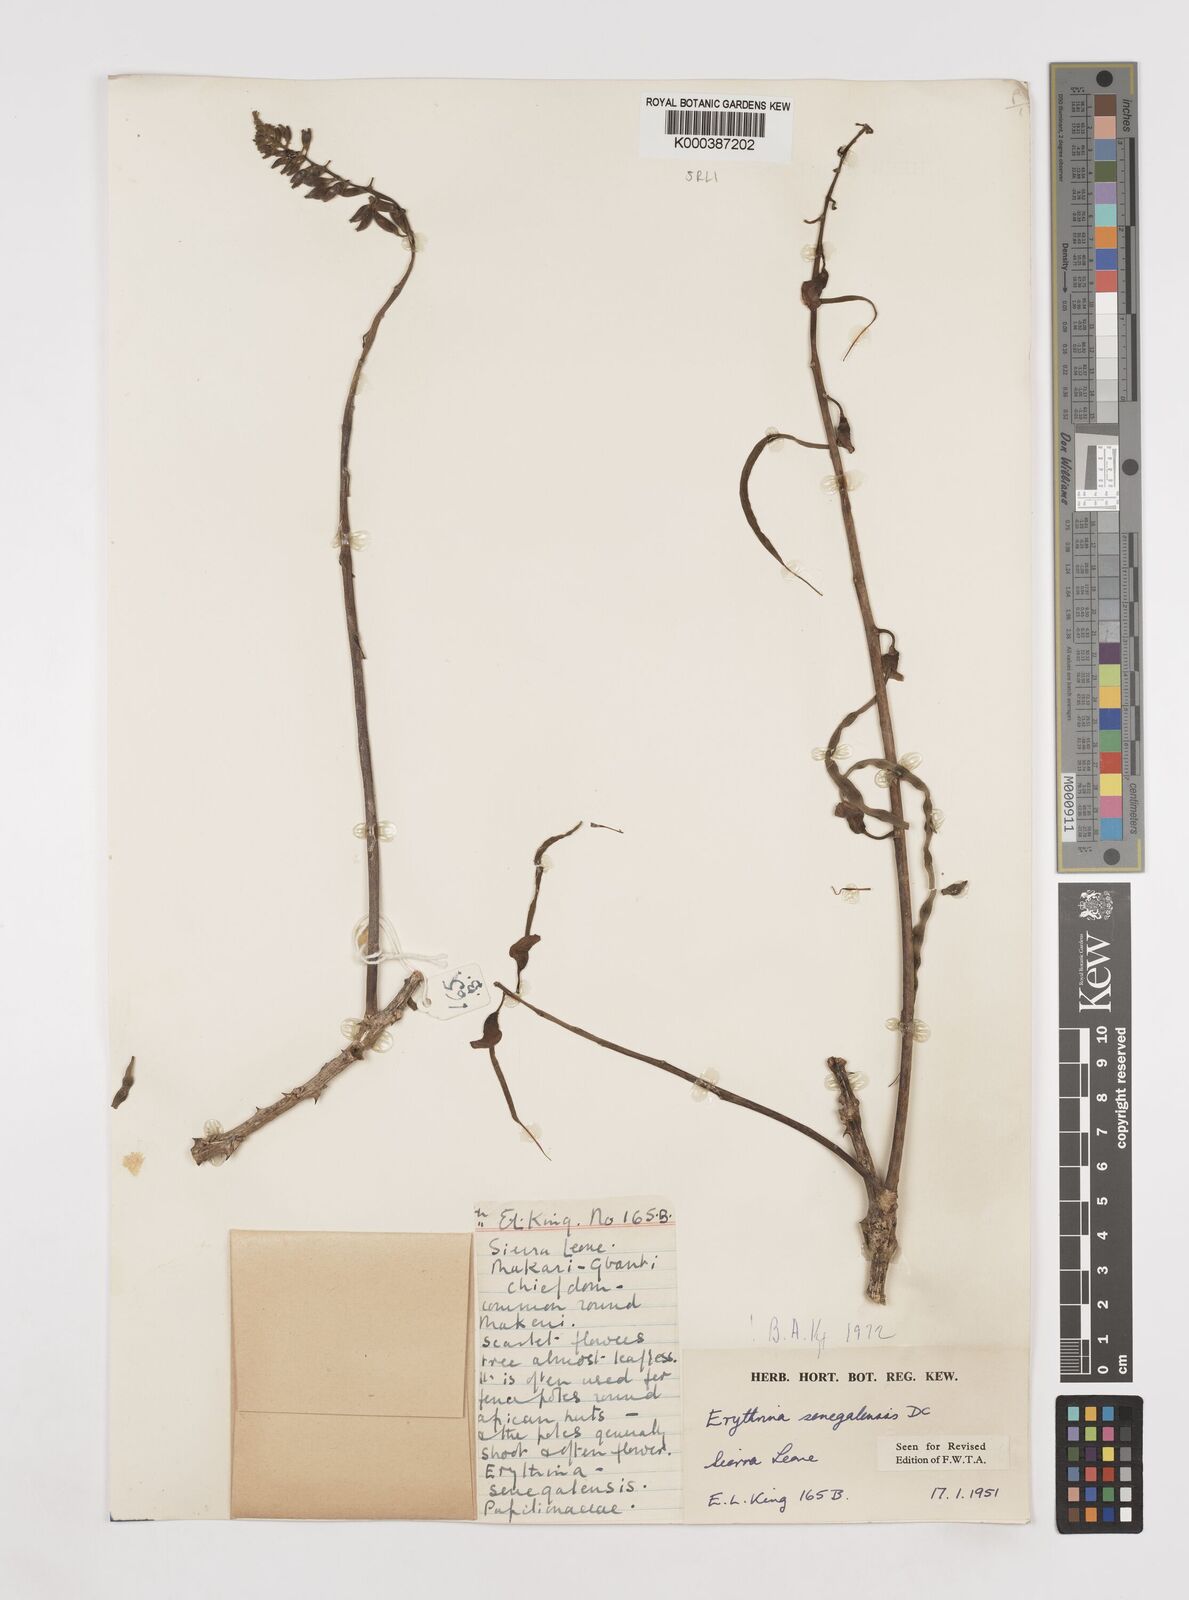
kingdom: Plantae
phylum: Tracheophyta
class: Magnoliopsida
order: Fabales
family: Fabaceae
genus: Erythrina
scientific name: Erythrina senegalensis
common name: Senegal coraltree
